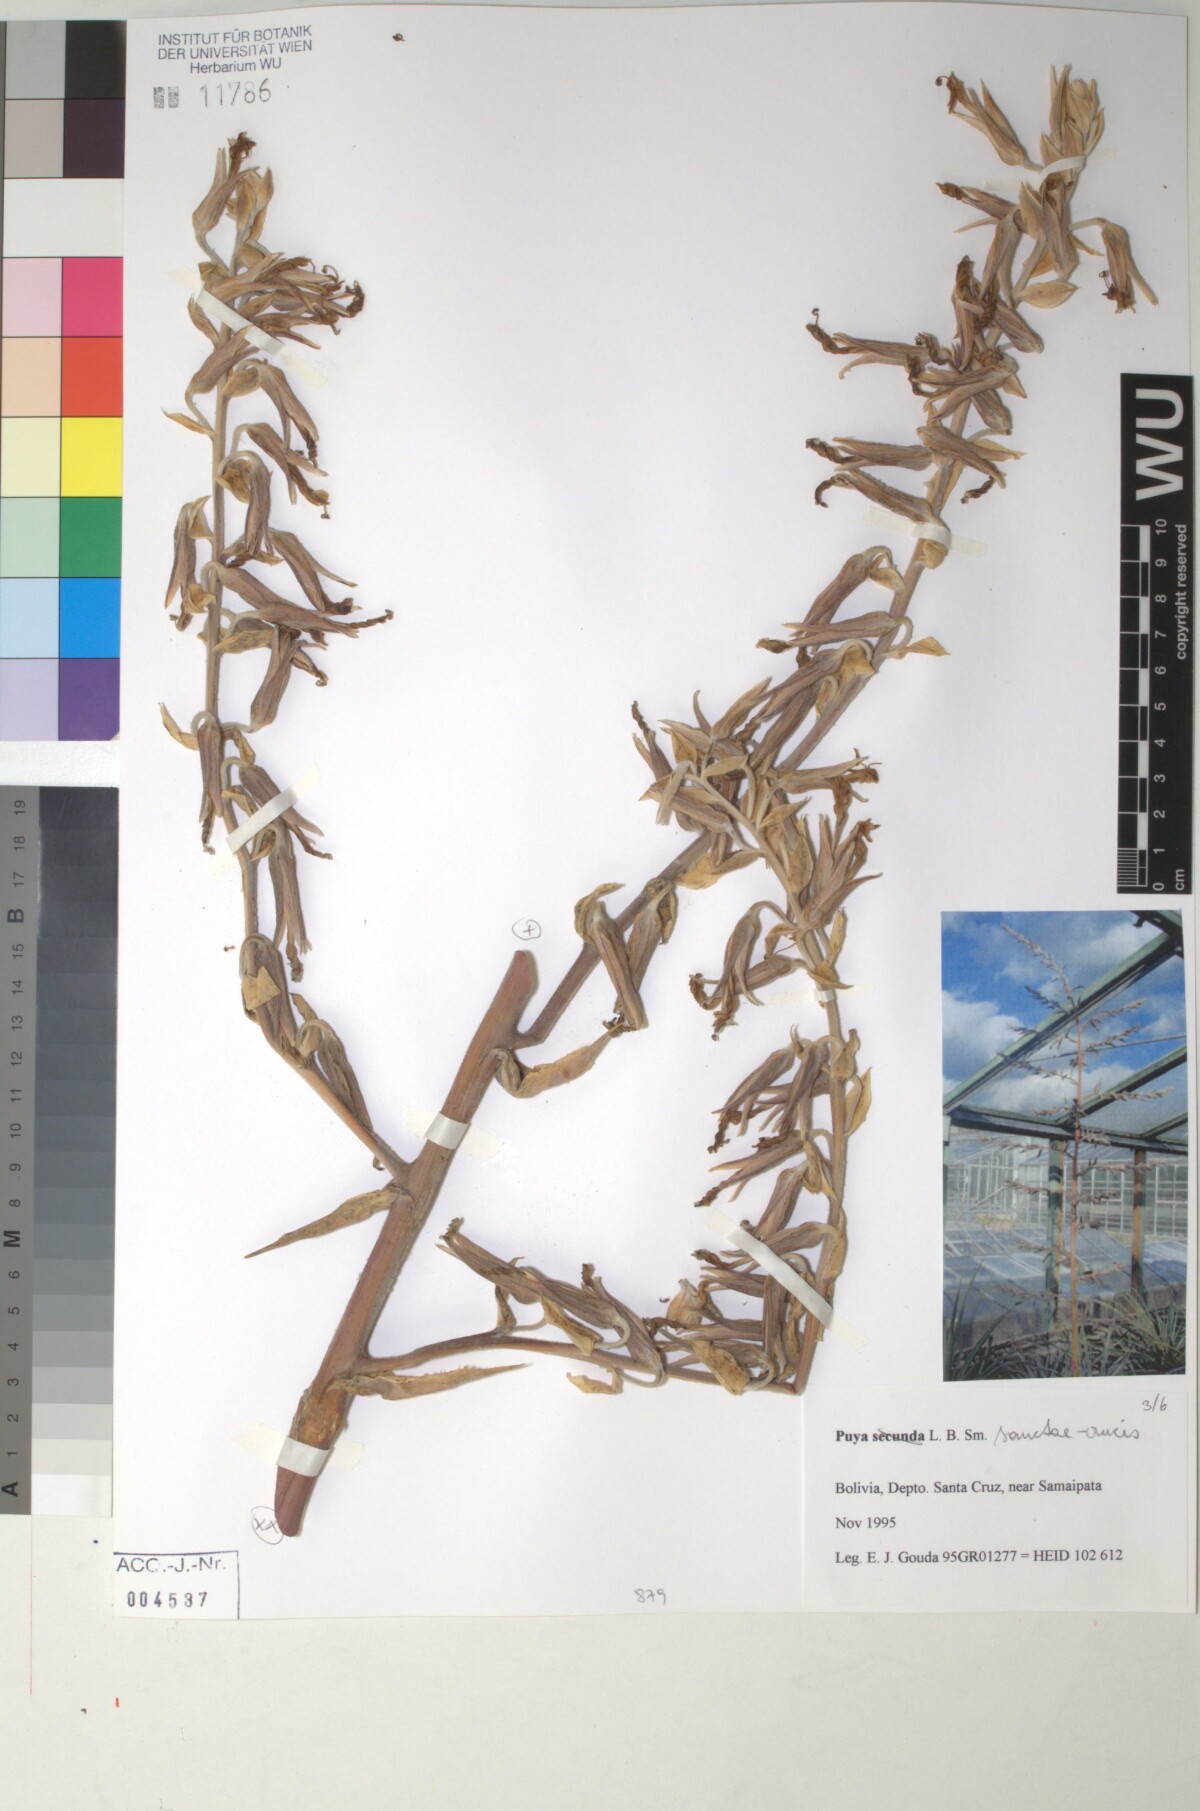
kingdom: Plantae
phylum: Tracheophyta
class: Liliopsida
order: Poales
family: Bromeliaceae
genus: Puya
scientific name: Puya secunda
